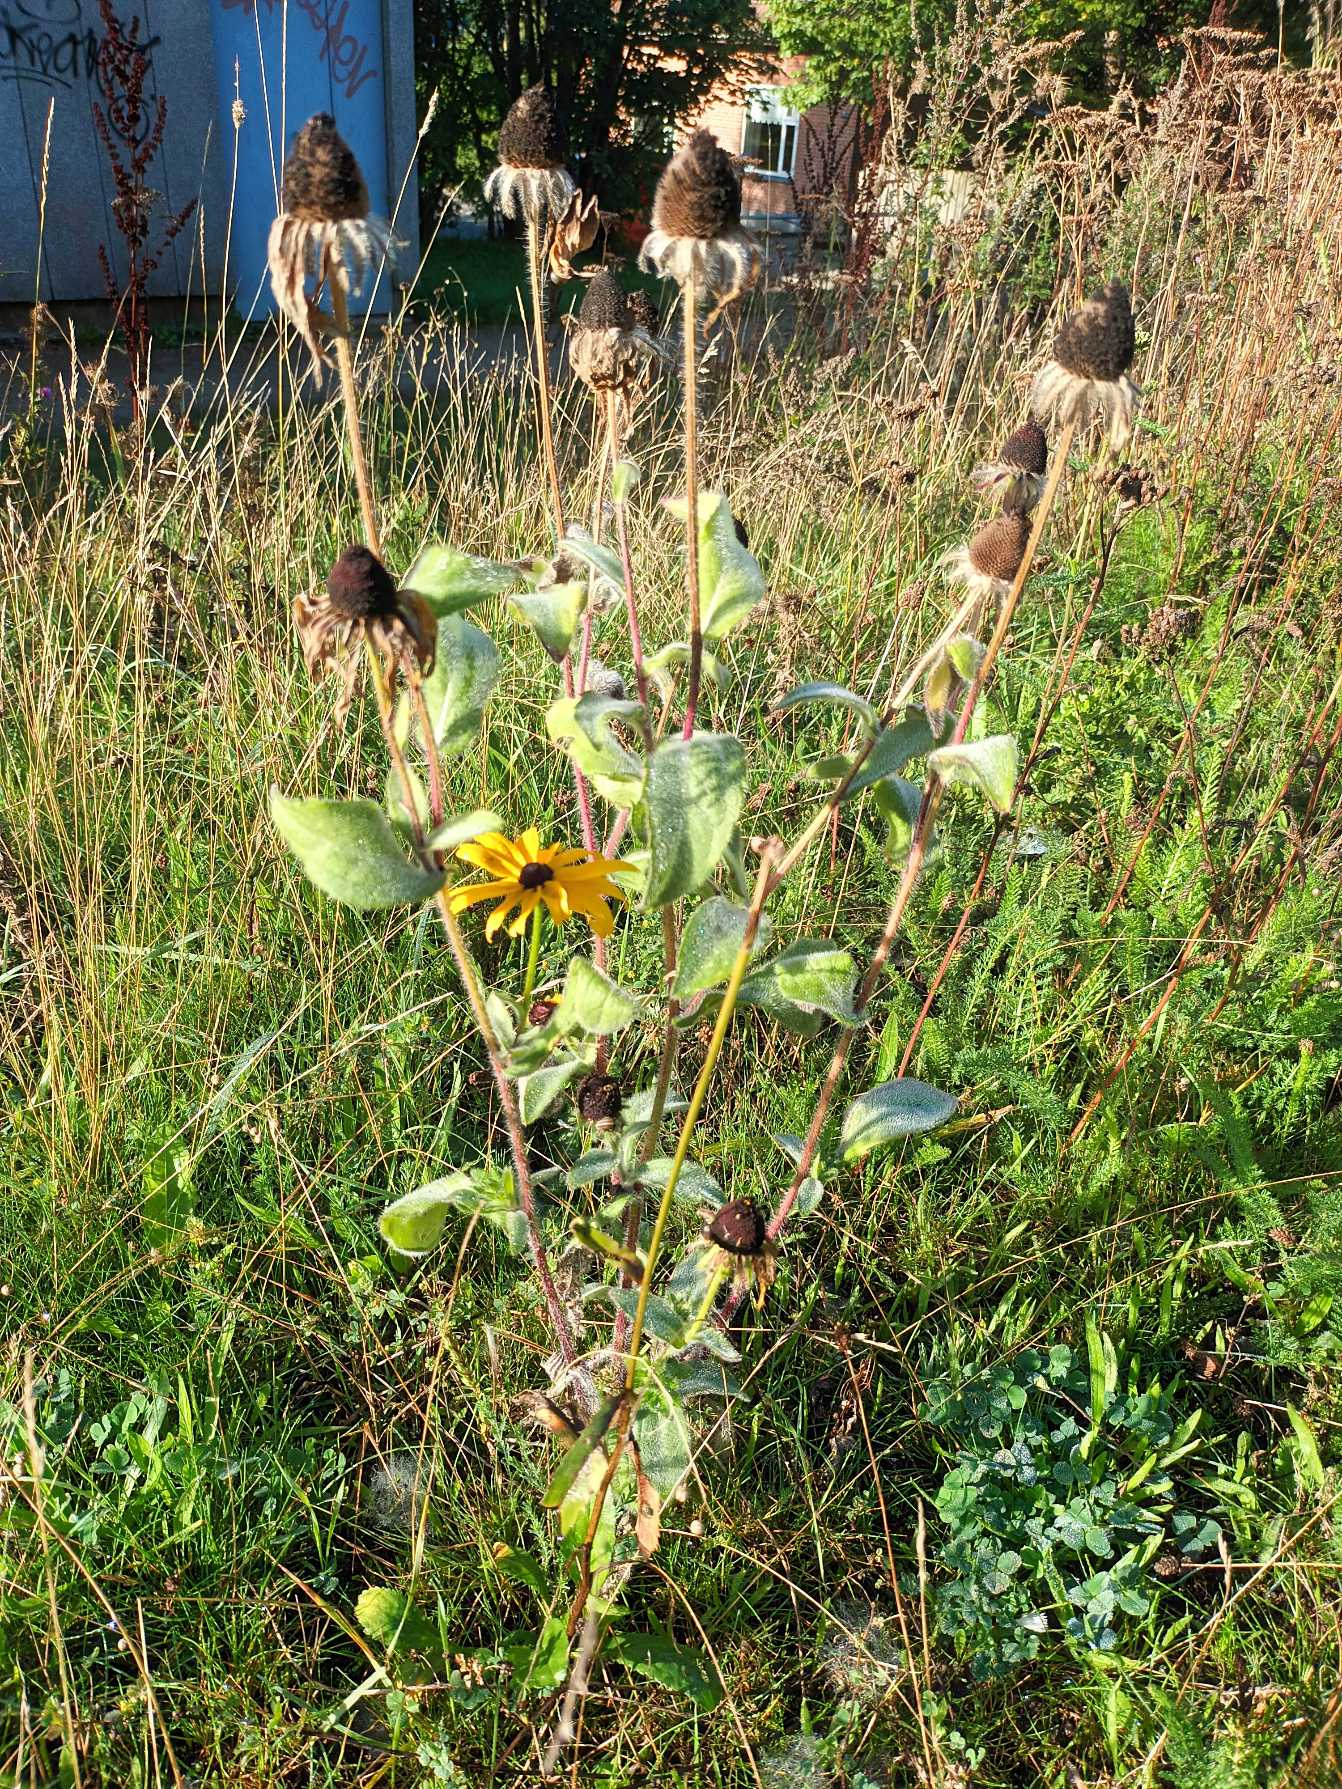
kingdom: Plantae
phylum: Tracheophyta
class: Magnoliopsida
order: Asterales
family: Asteraceae
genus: Rudbeckia
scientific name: Rudbeckia hirta
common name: Håret solhat
